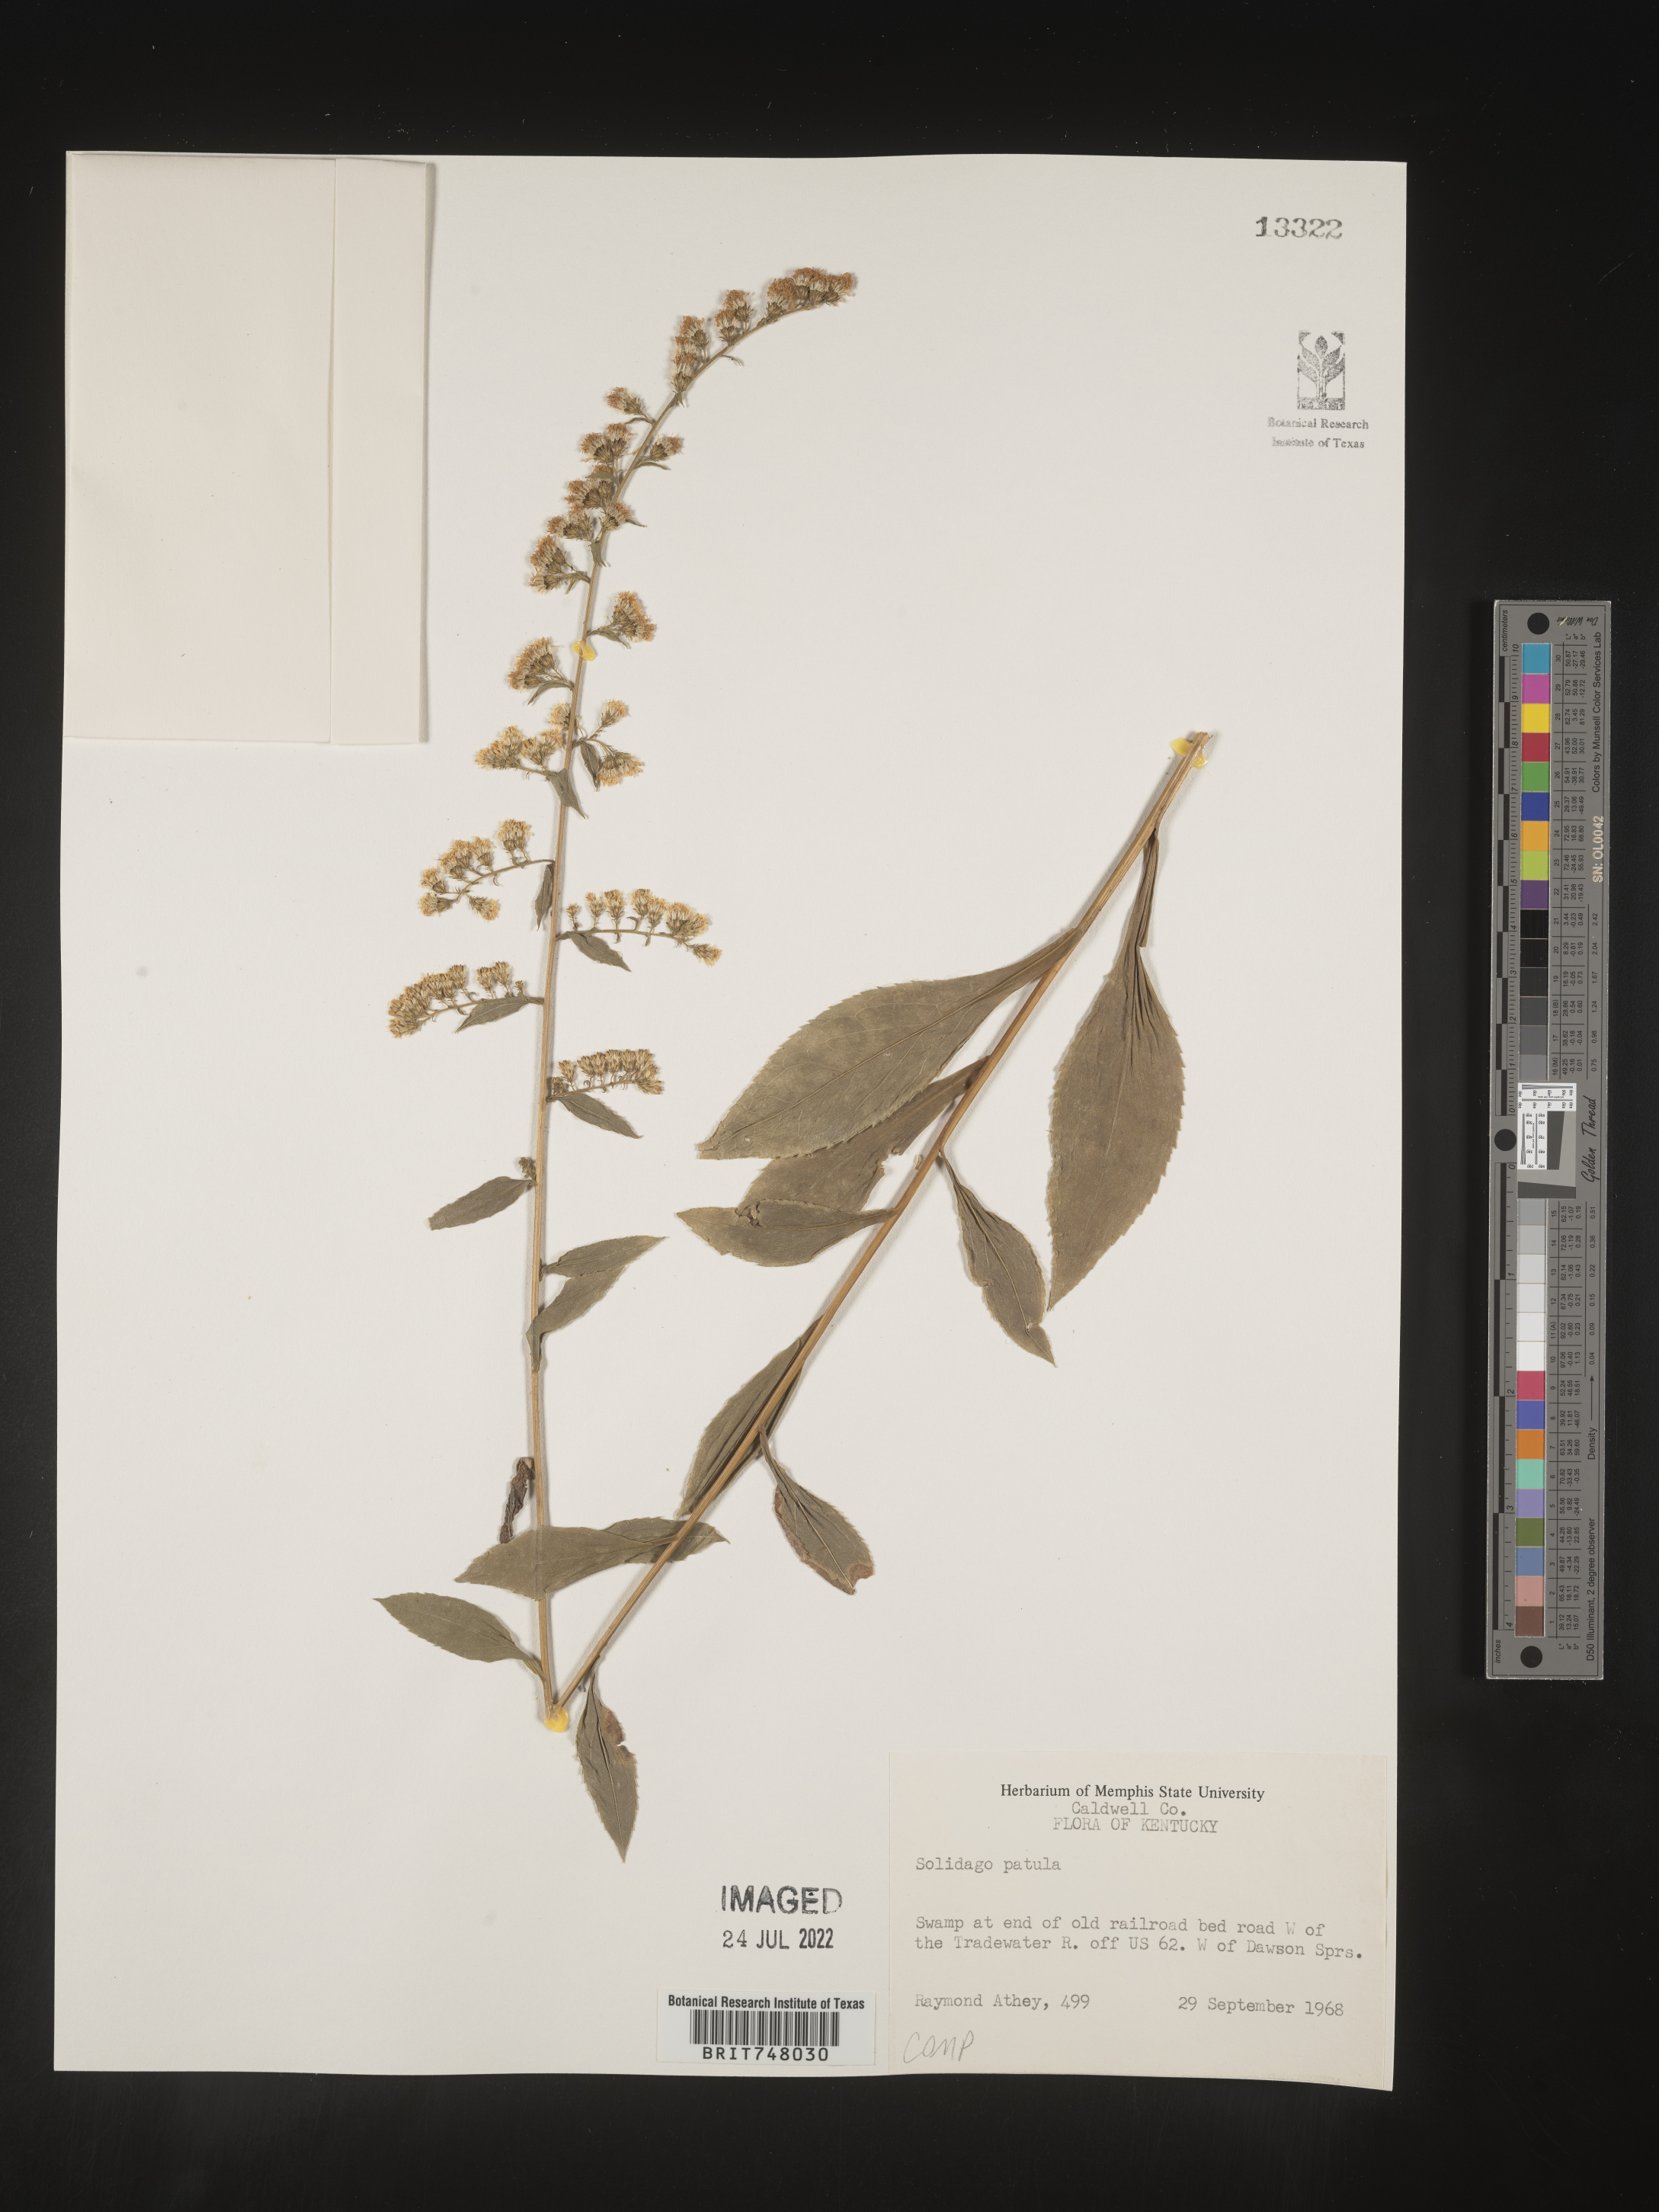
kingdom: Plantae
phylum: Tracheophyta
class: Magnoliopsida
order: Asterales
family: Asteraceae
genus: Solidago
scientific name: Solidago patula
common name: Rough-leaf goldenrod
